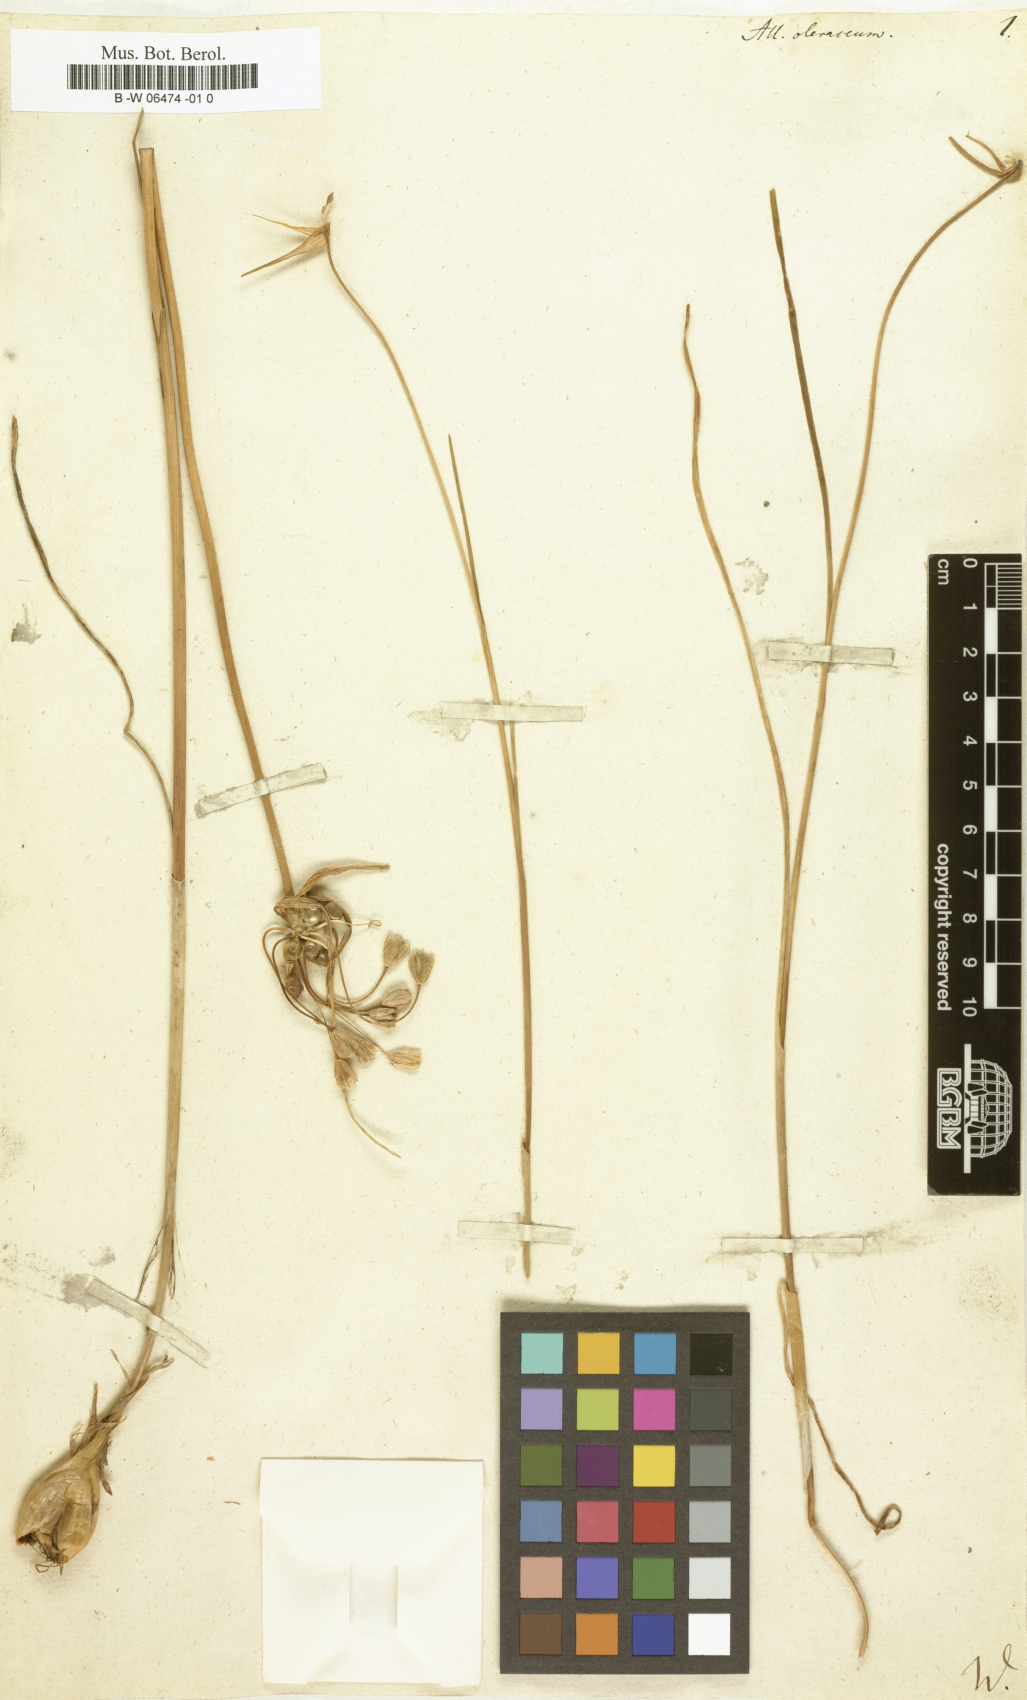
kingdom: Plantae
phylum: Tracheophyta
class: Liliopsida
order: Asparagales
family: Amaryllidaceae
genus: Allium
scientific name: Allium oleraceum
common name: Field garlic
